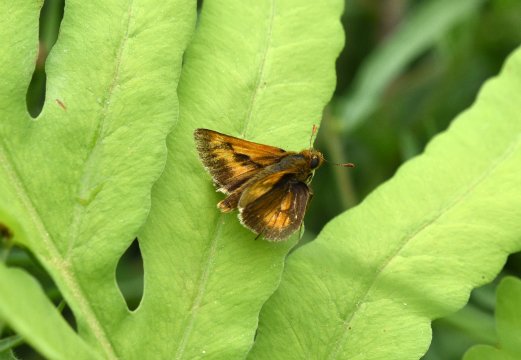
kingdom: Animalia
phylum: Arthropoda
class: Insecta
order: Lepidoptera
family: Hesperiidae
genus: Polites
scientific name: Polites
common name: Long Dash Skipper
